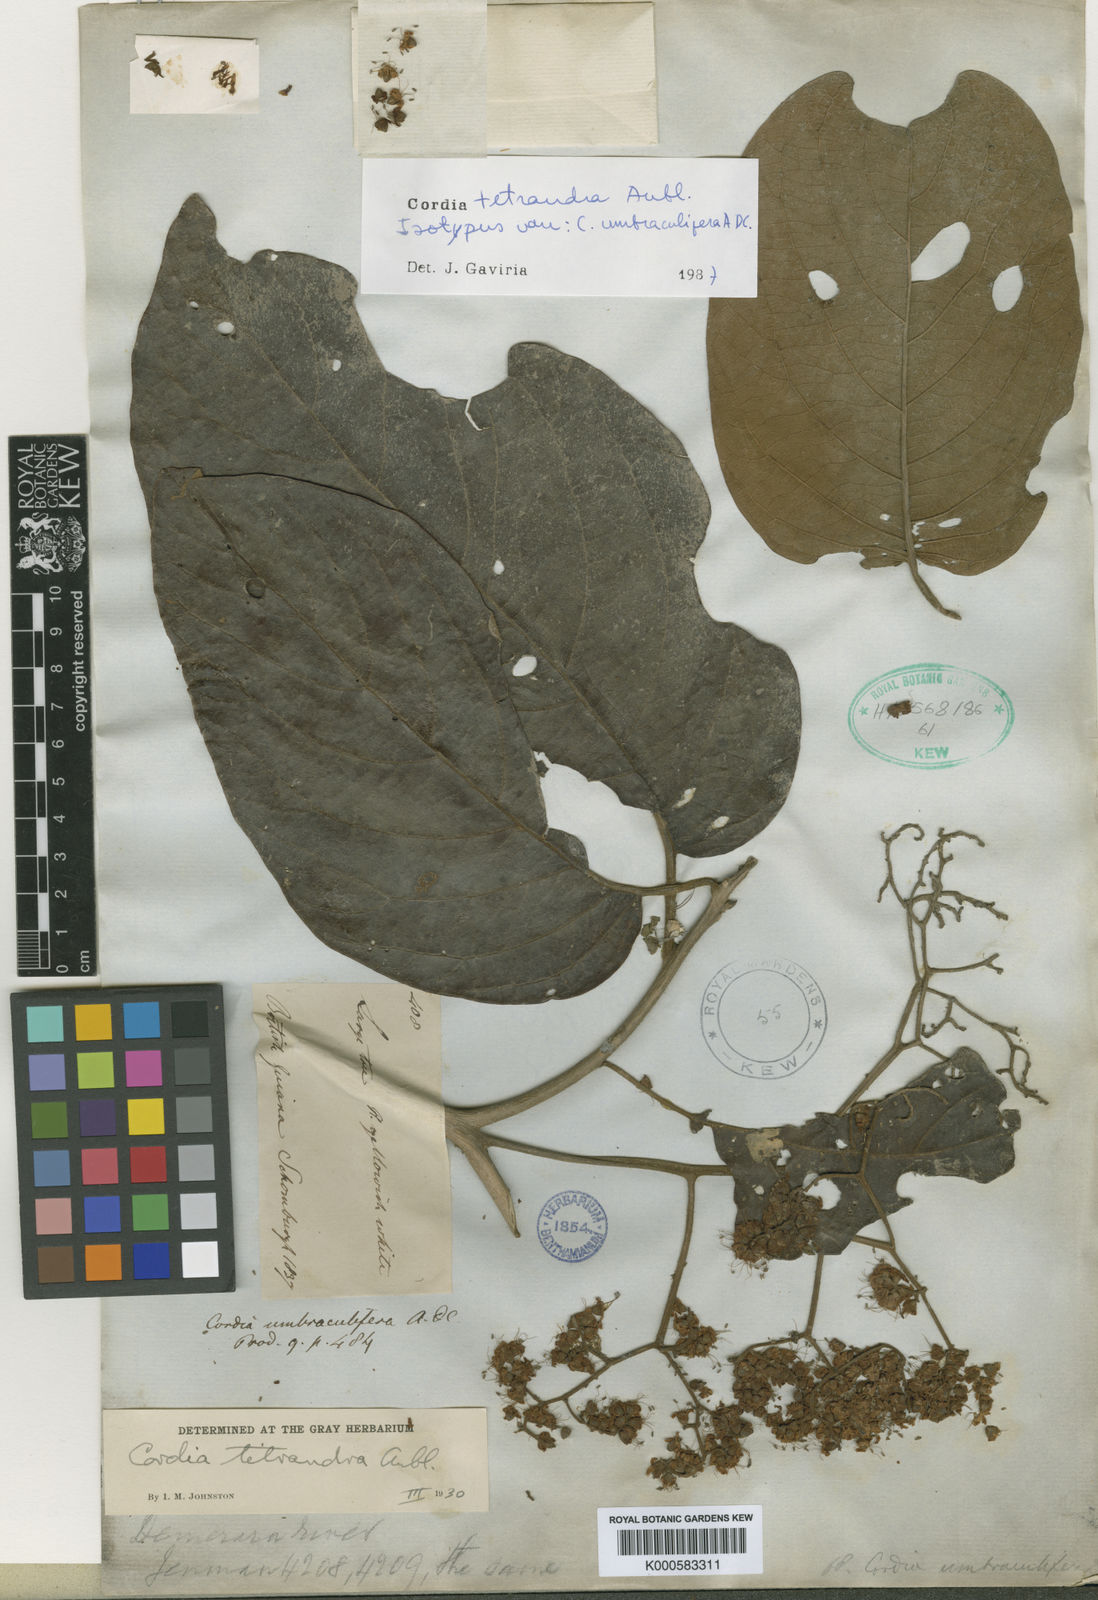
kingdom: Plantae
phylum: Tracheophyta
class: Magnoliopsida
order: Boraginales
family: Cordiaceae
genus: Cordia
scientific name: Cordia tetrandra
